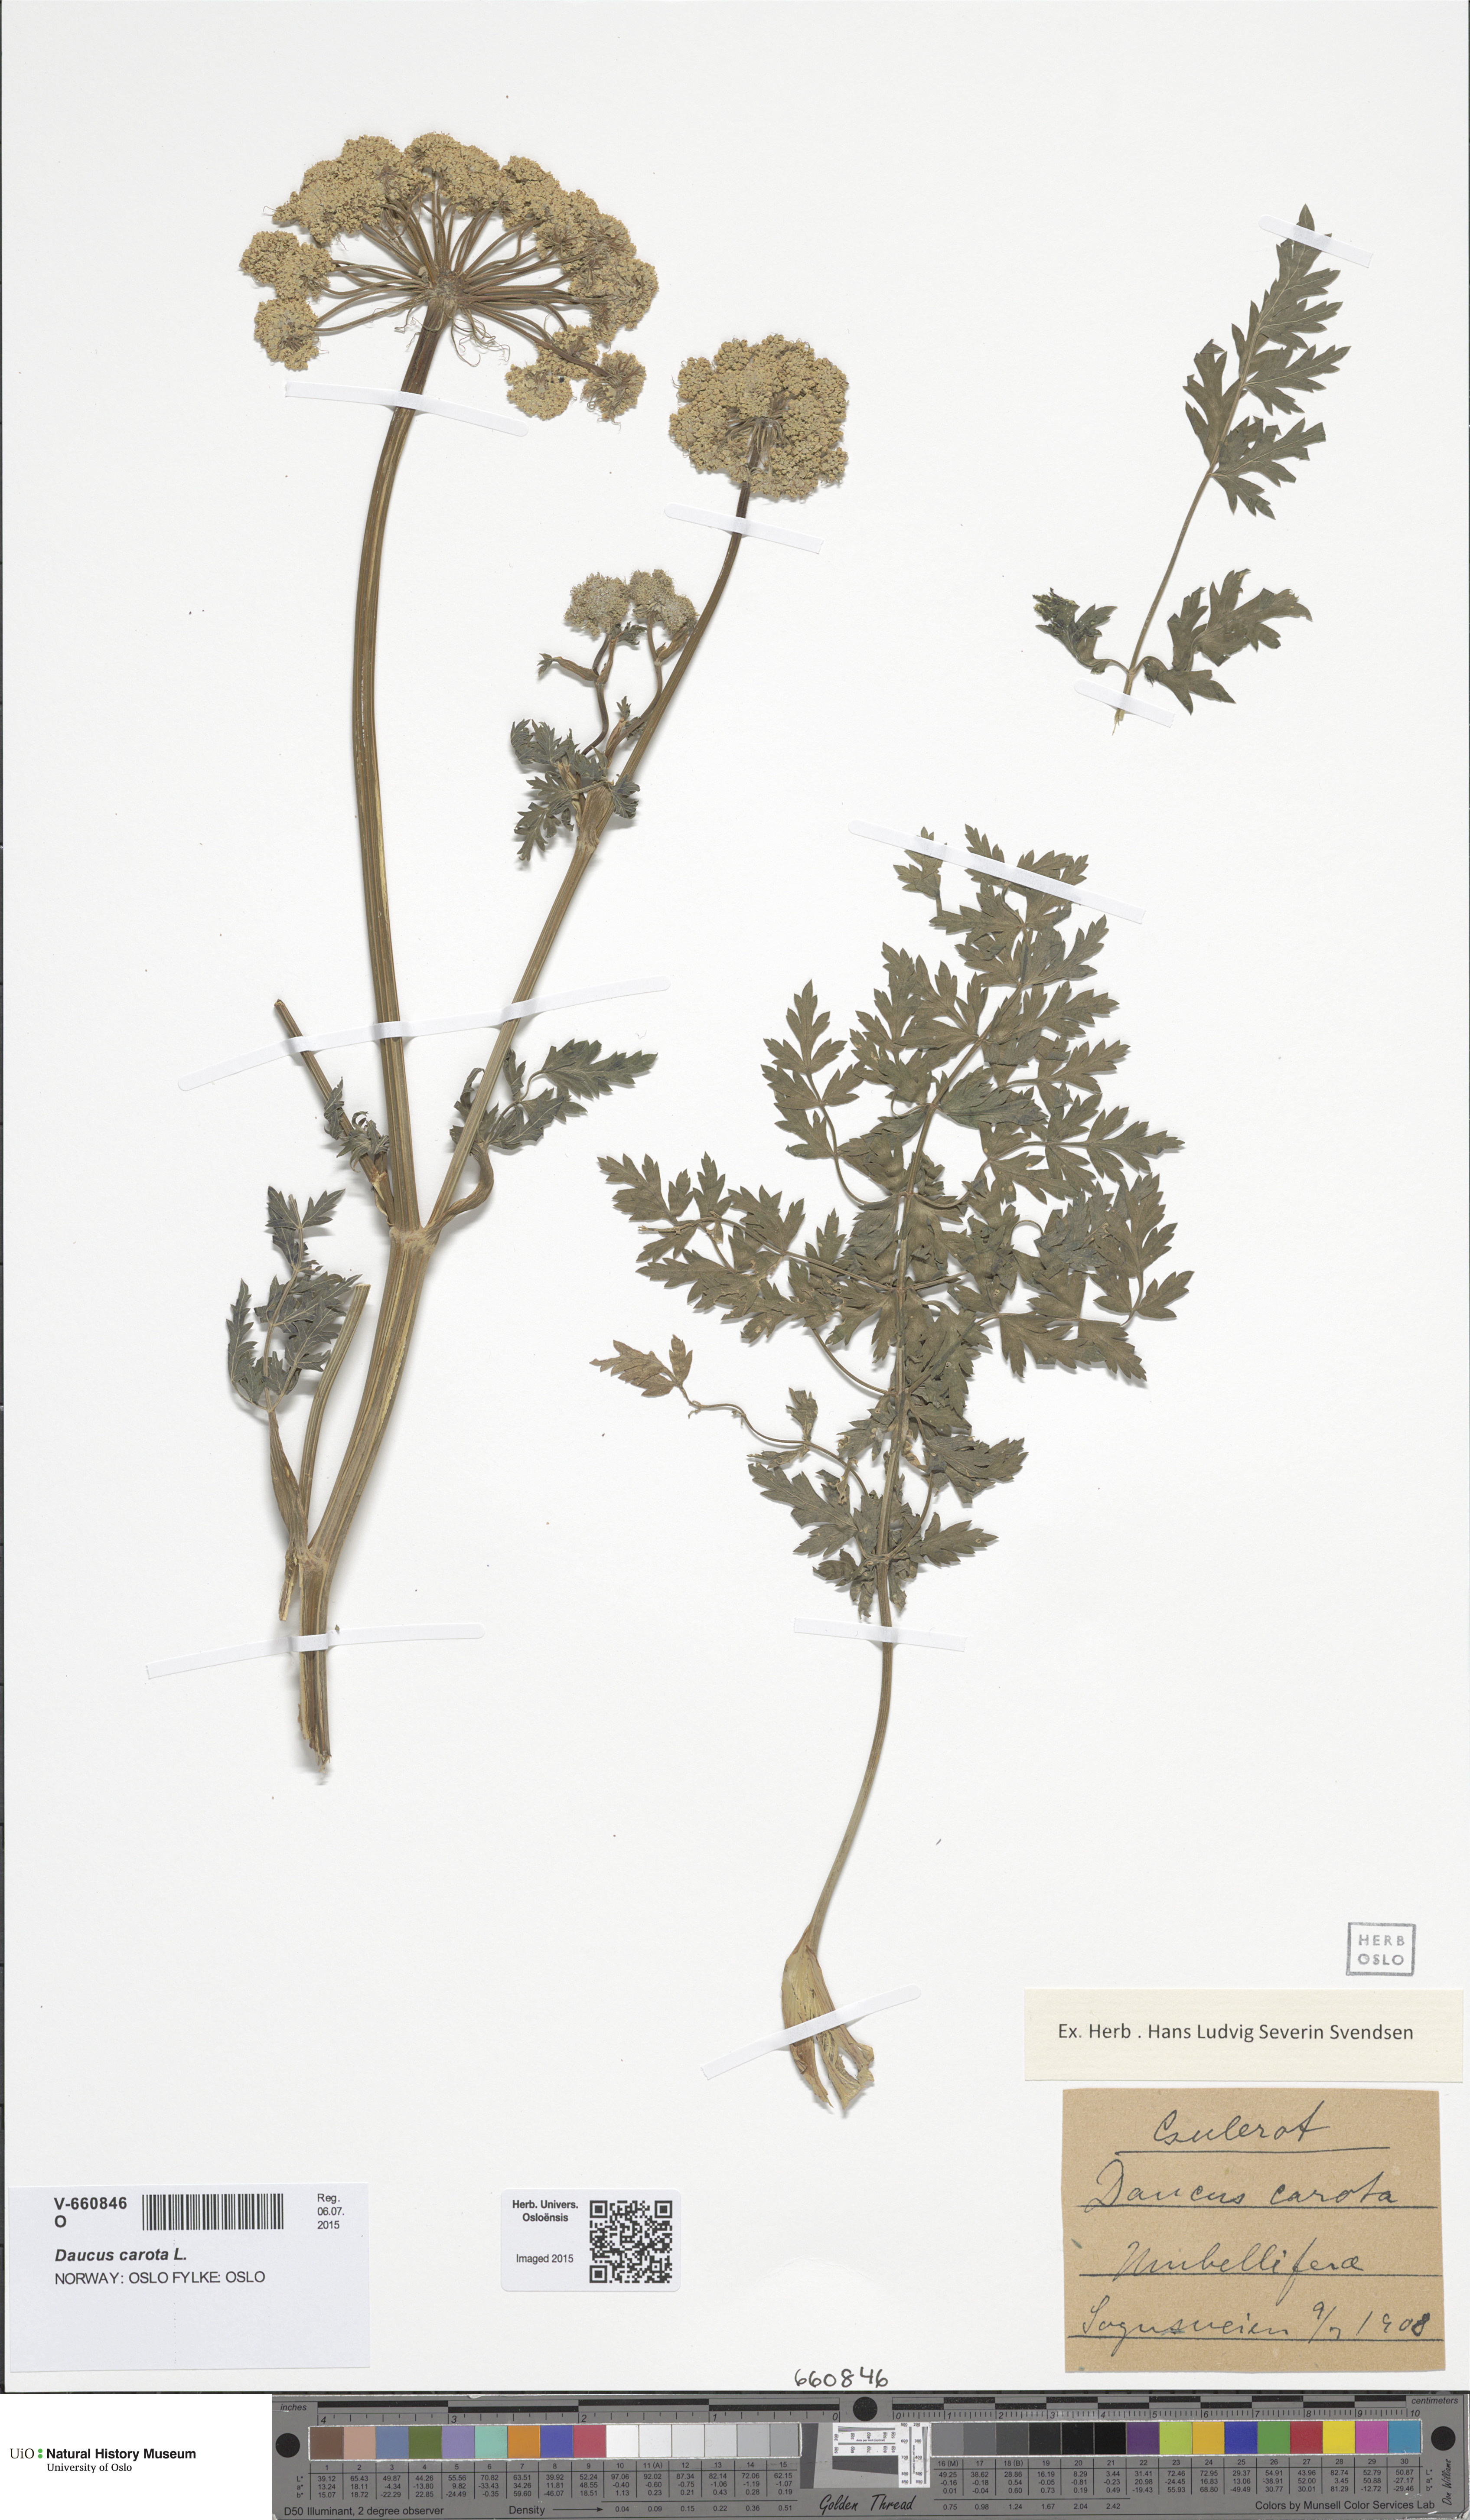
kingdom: Plantae
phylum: Tracheophyta
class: Magnoliopsida
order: Apiales
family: Apiaceae
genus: Seseli
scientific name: Seseli libanotis
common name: Mooncarrot
